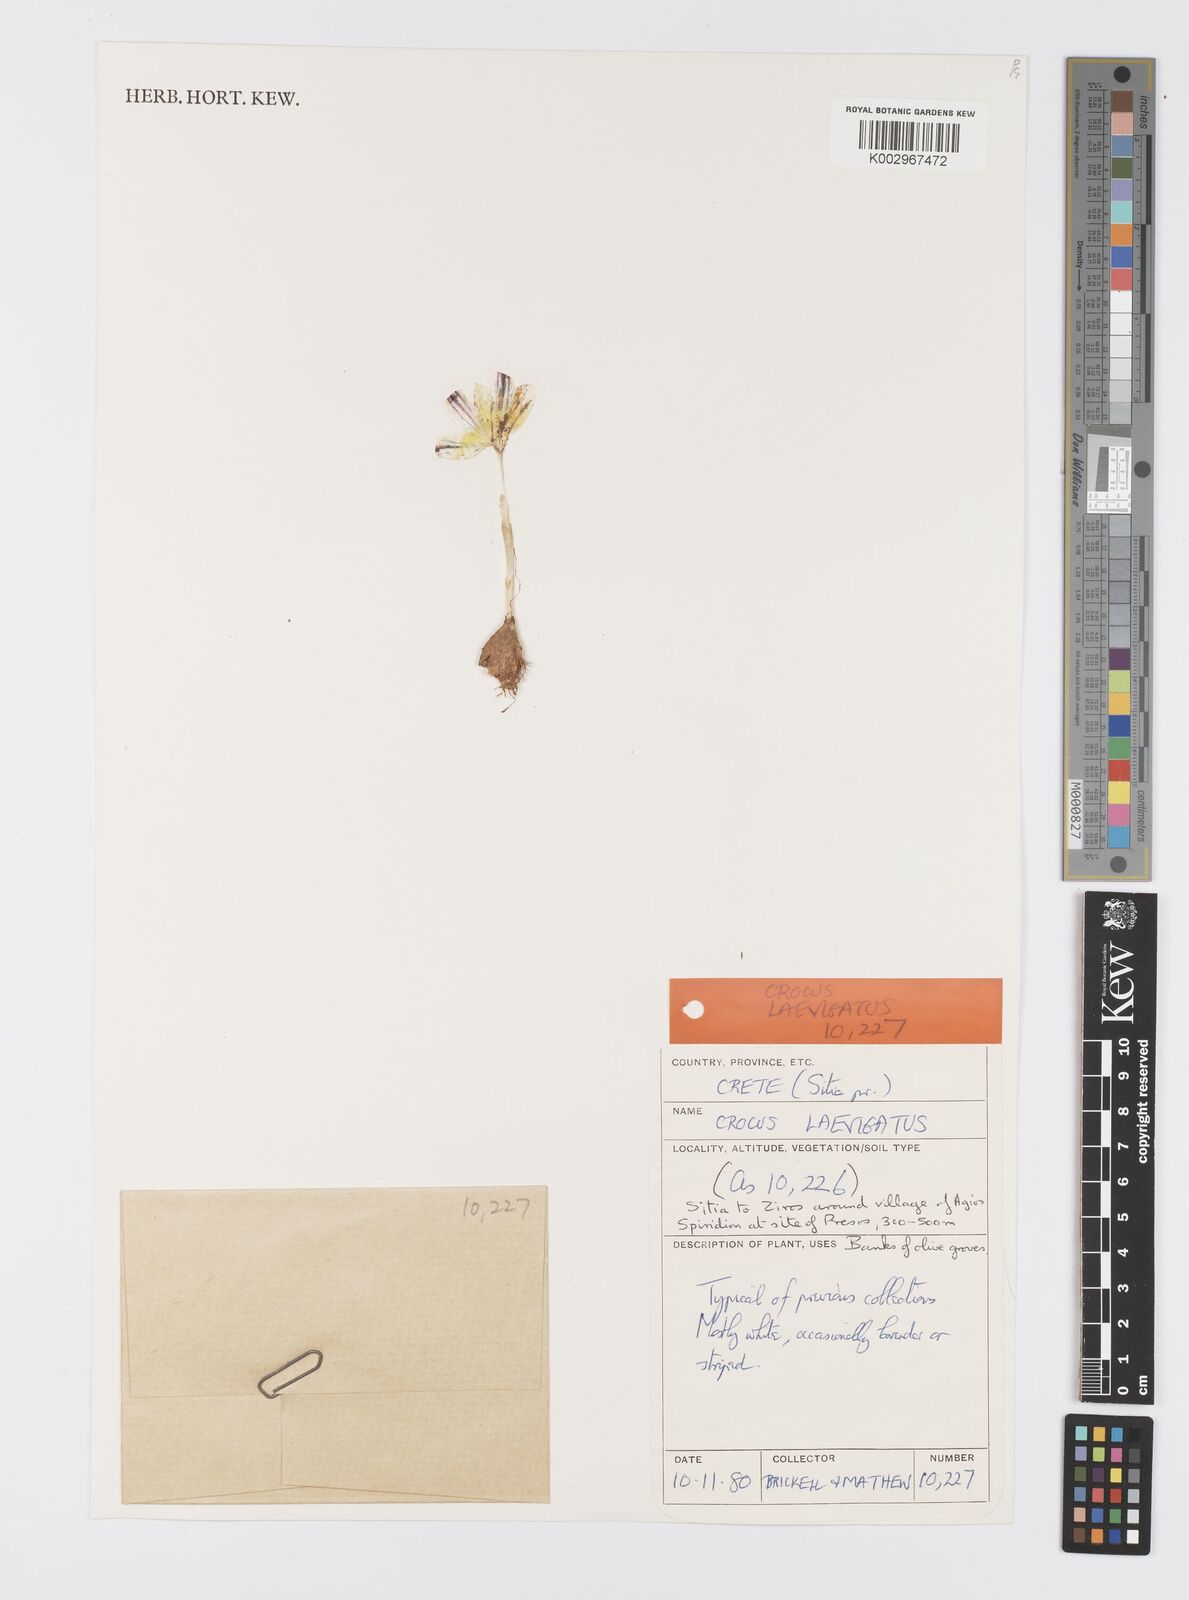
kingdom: Plantae
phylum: Tracheophyta
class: Liliopsida
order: Asparagales
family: Iridaceae
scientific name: Iridaceae
